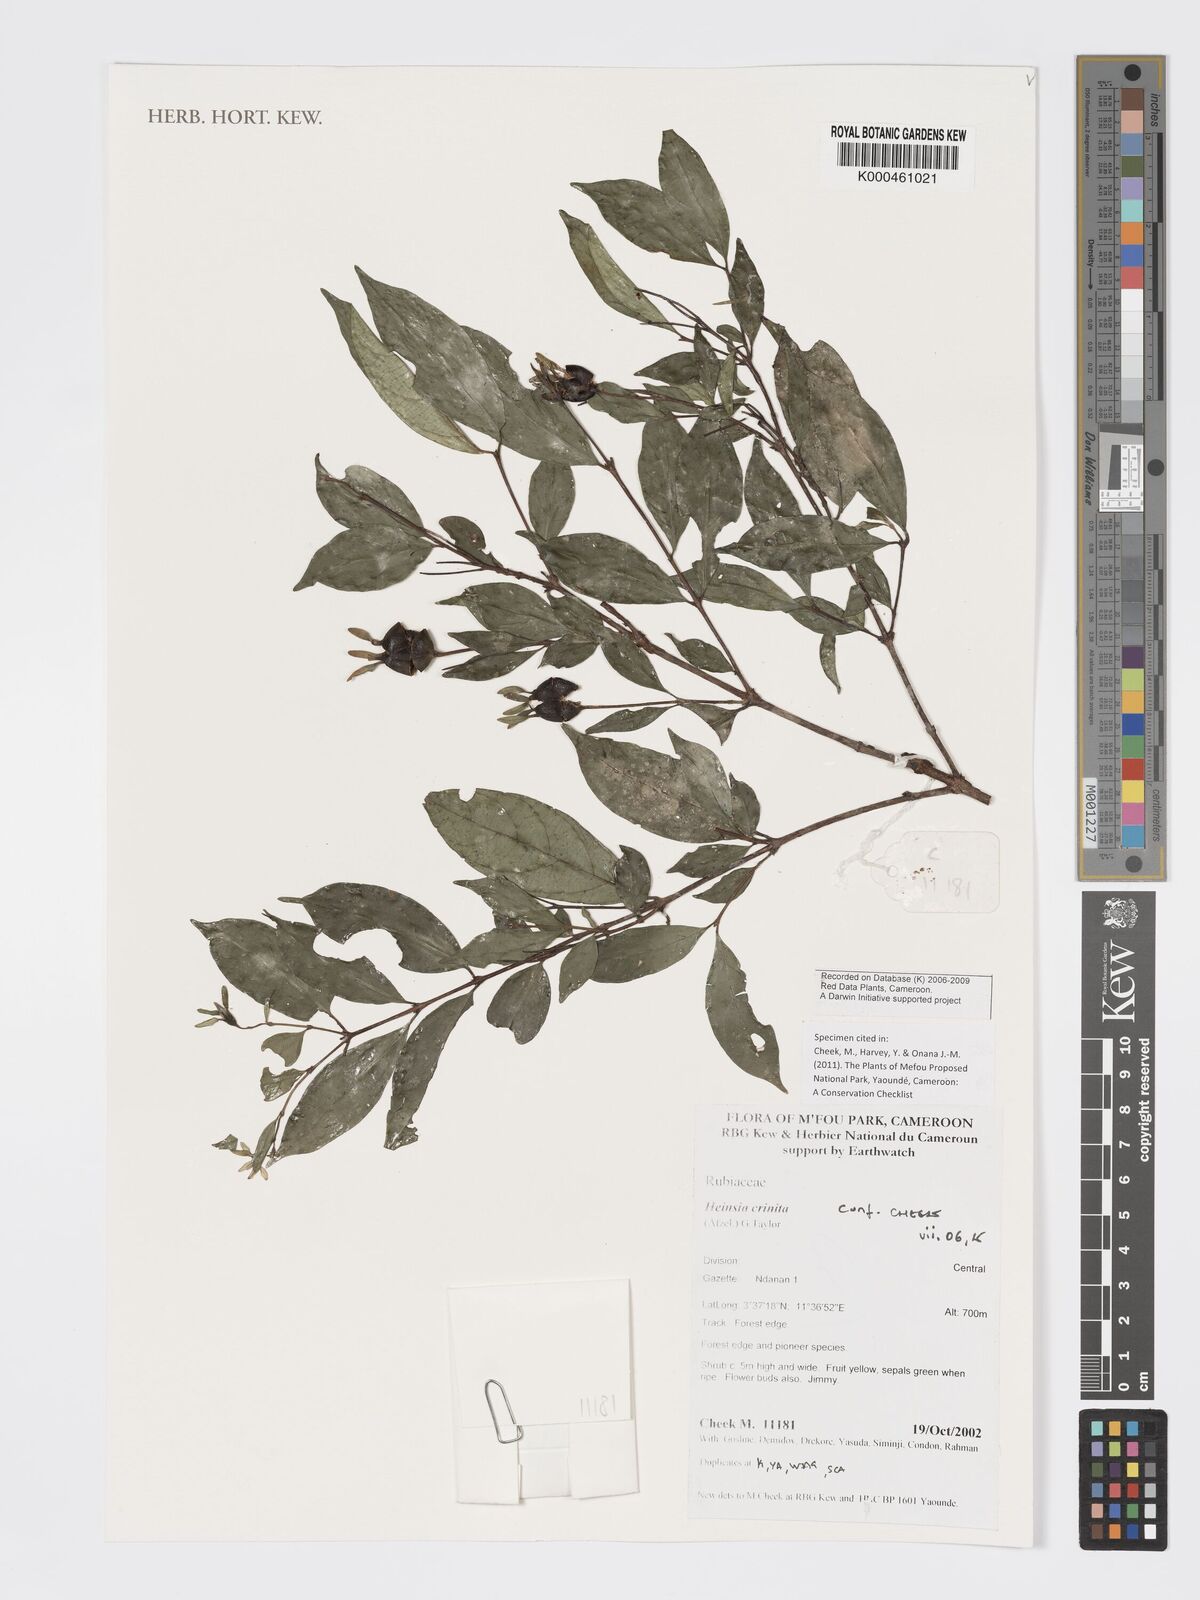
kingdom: Plantae
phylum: Tracheophyta
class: Magnoliopsida
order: Gentianales
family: Rubiaceae
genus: Heinsia
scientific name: Heinsia crinita
